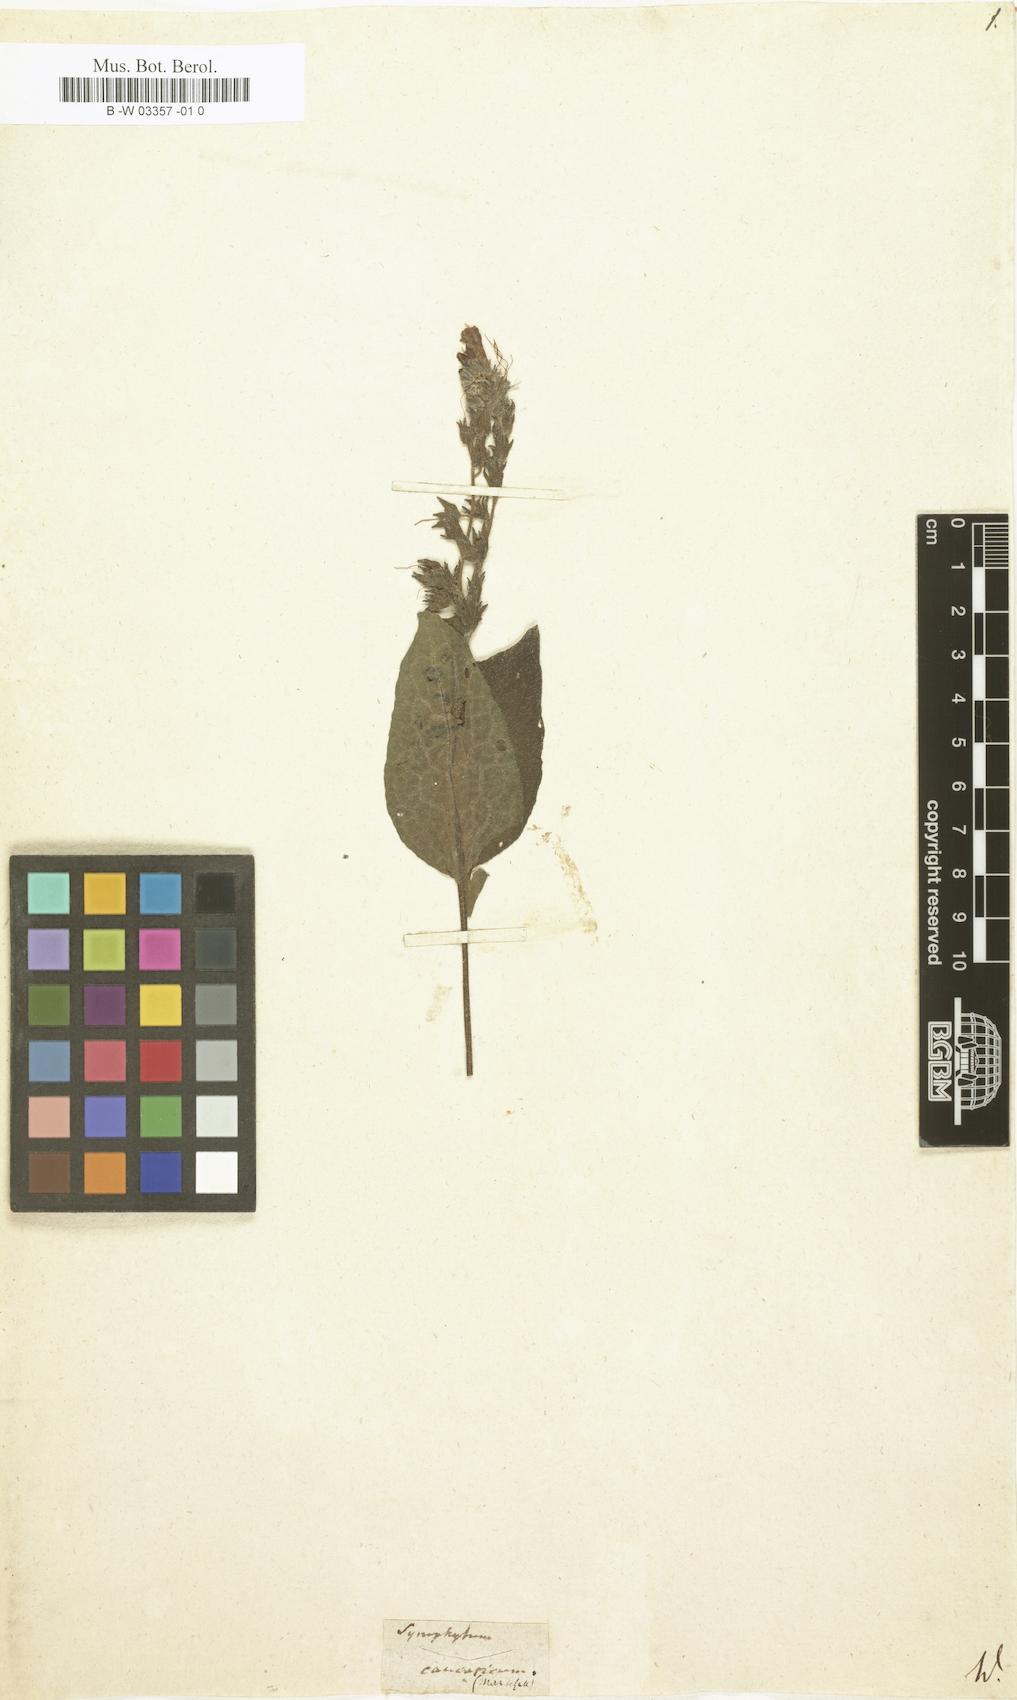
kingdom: Plantae
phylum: Tracheophyta
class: Magnoliopsida
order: Boraginales
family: Boraginaceae
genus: Symphytum
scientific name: Symphytum caucasicum
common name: Caucasian comfrey
